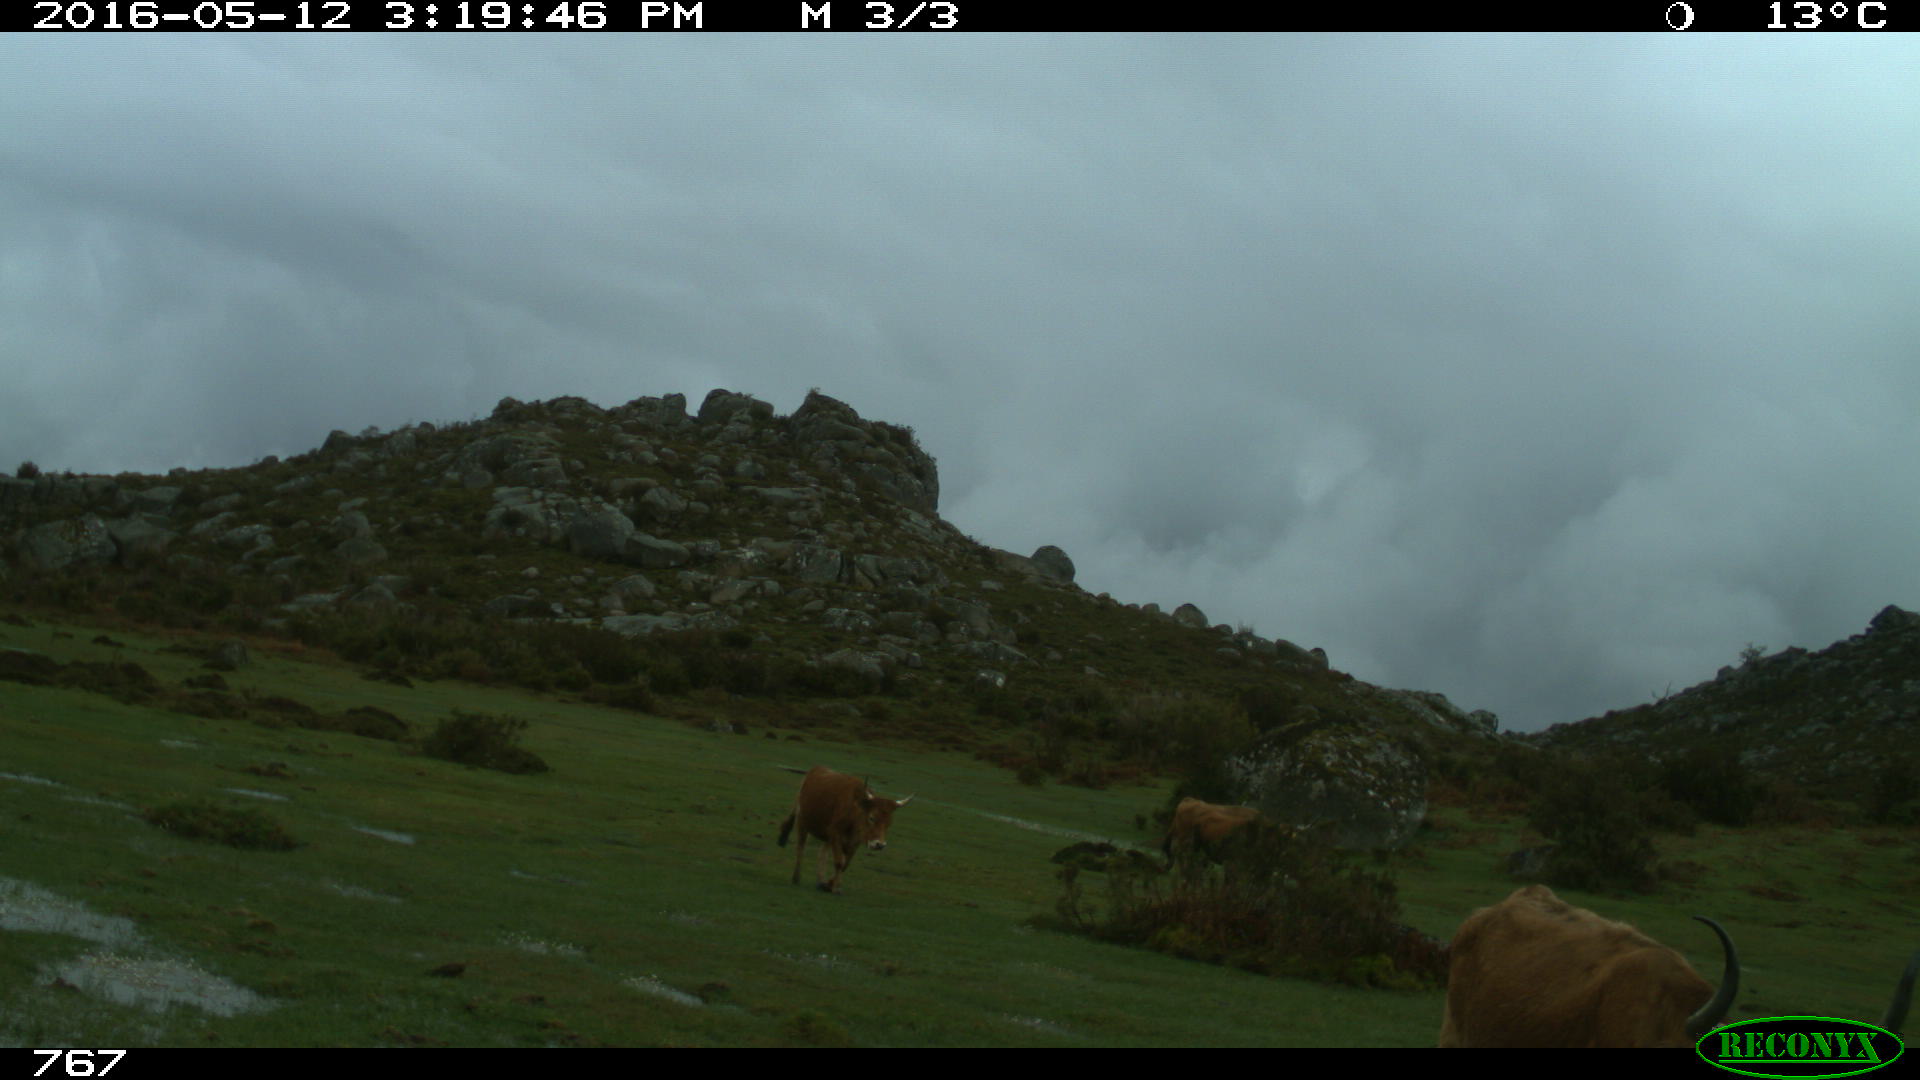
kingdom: Animalia
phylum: Chordata
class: Mammalia
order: Artiodactyla
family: Bovidae
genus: Bos
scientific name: Bos taurus
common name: Domesticated cattle
